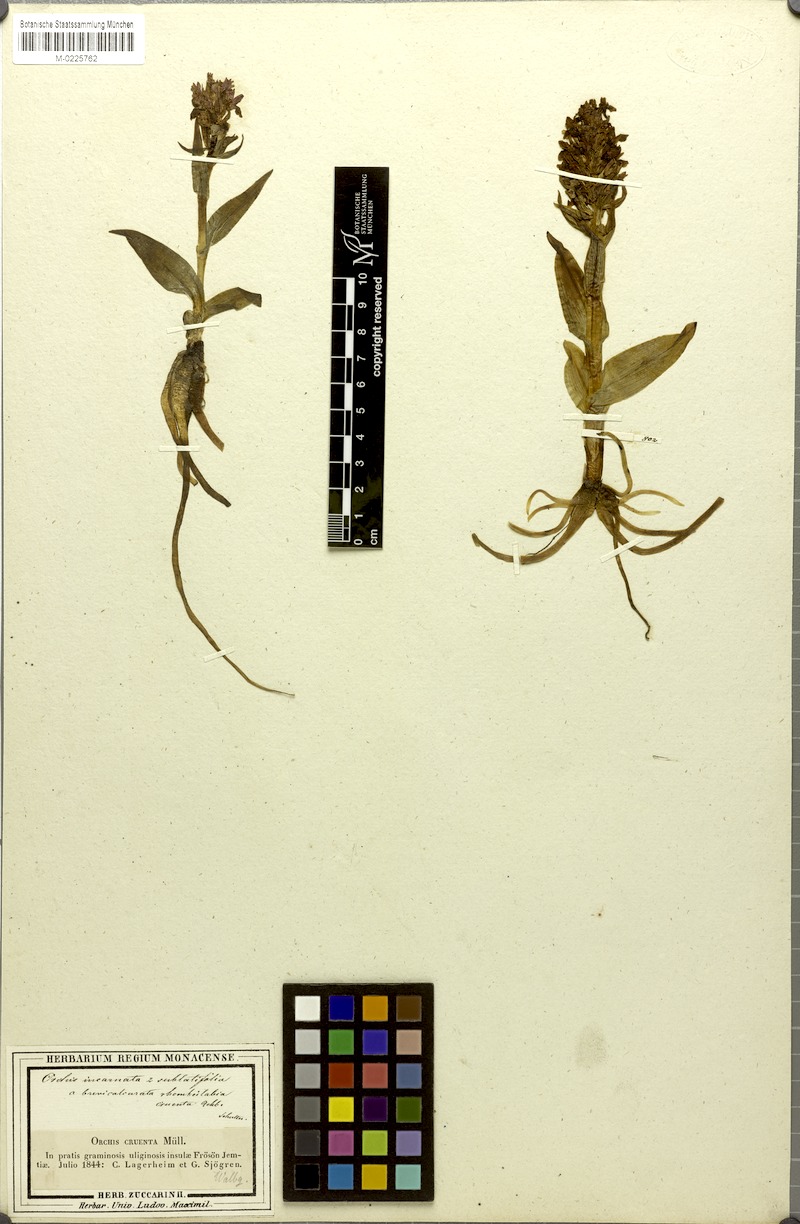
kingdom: Plantae
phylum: Tracheophyta
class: Liliopsida
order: Asparagales
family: Orchidaceae
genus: Dactylorhiza
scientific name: Dactylorhiza incarnata
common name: Early marsh-orchid
